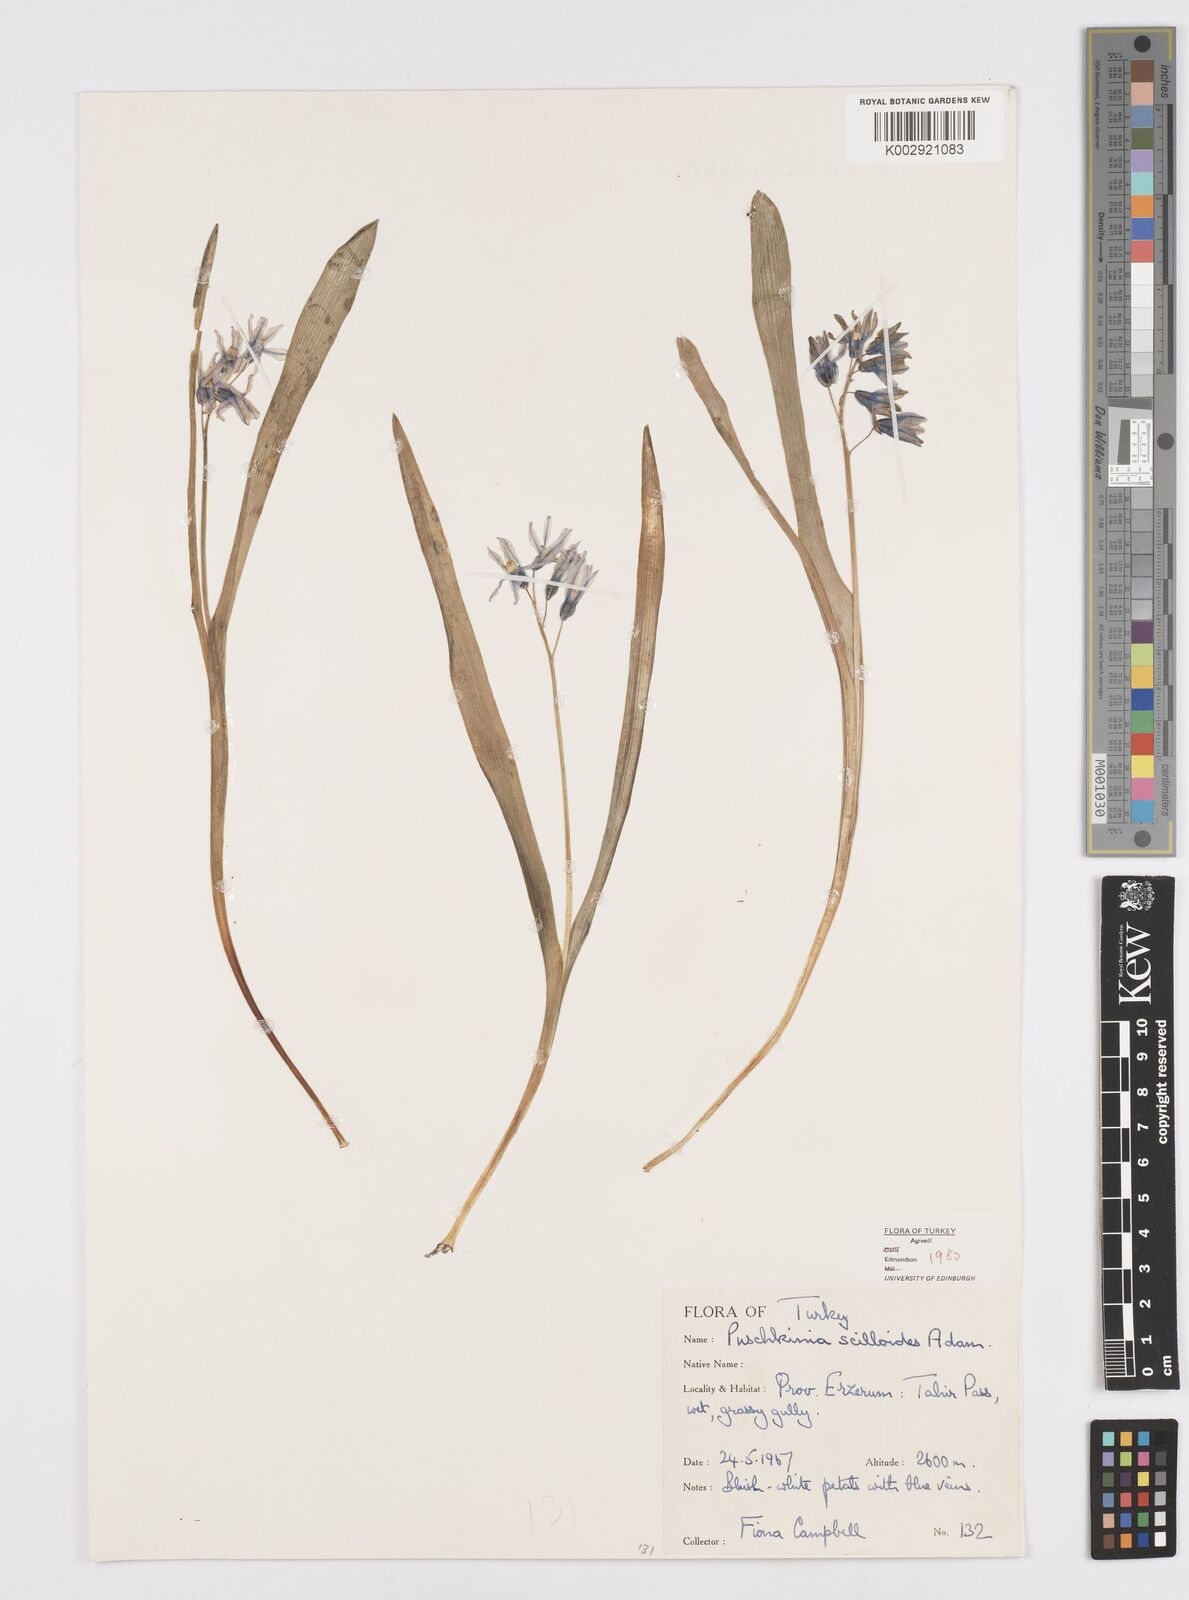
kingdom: Plantae
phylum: Tracheophyta
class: Liliopsida
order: Asparagales
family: Asparagaceae
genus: Puschkinia
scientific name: Puschkinia scilloides
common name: Striped squill
